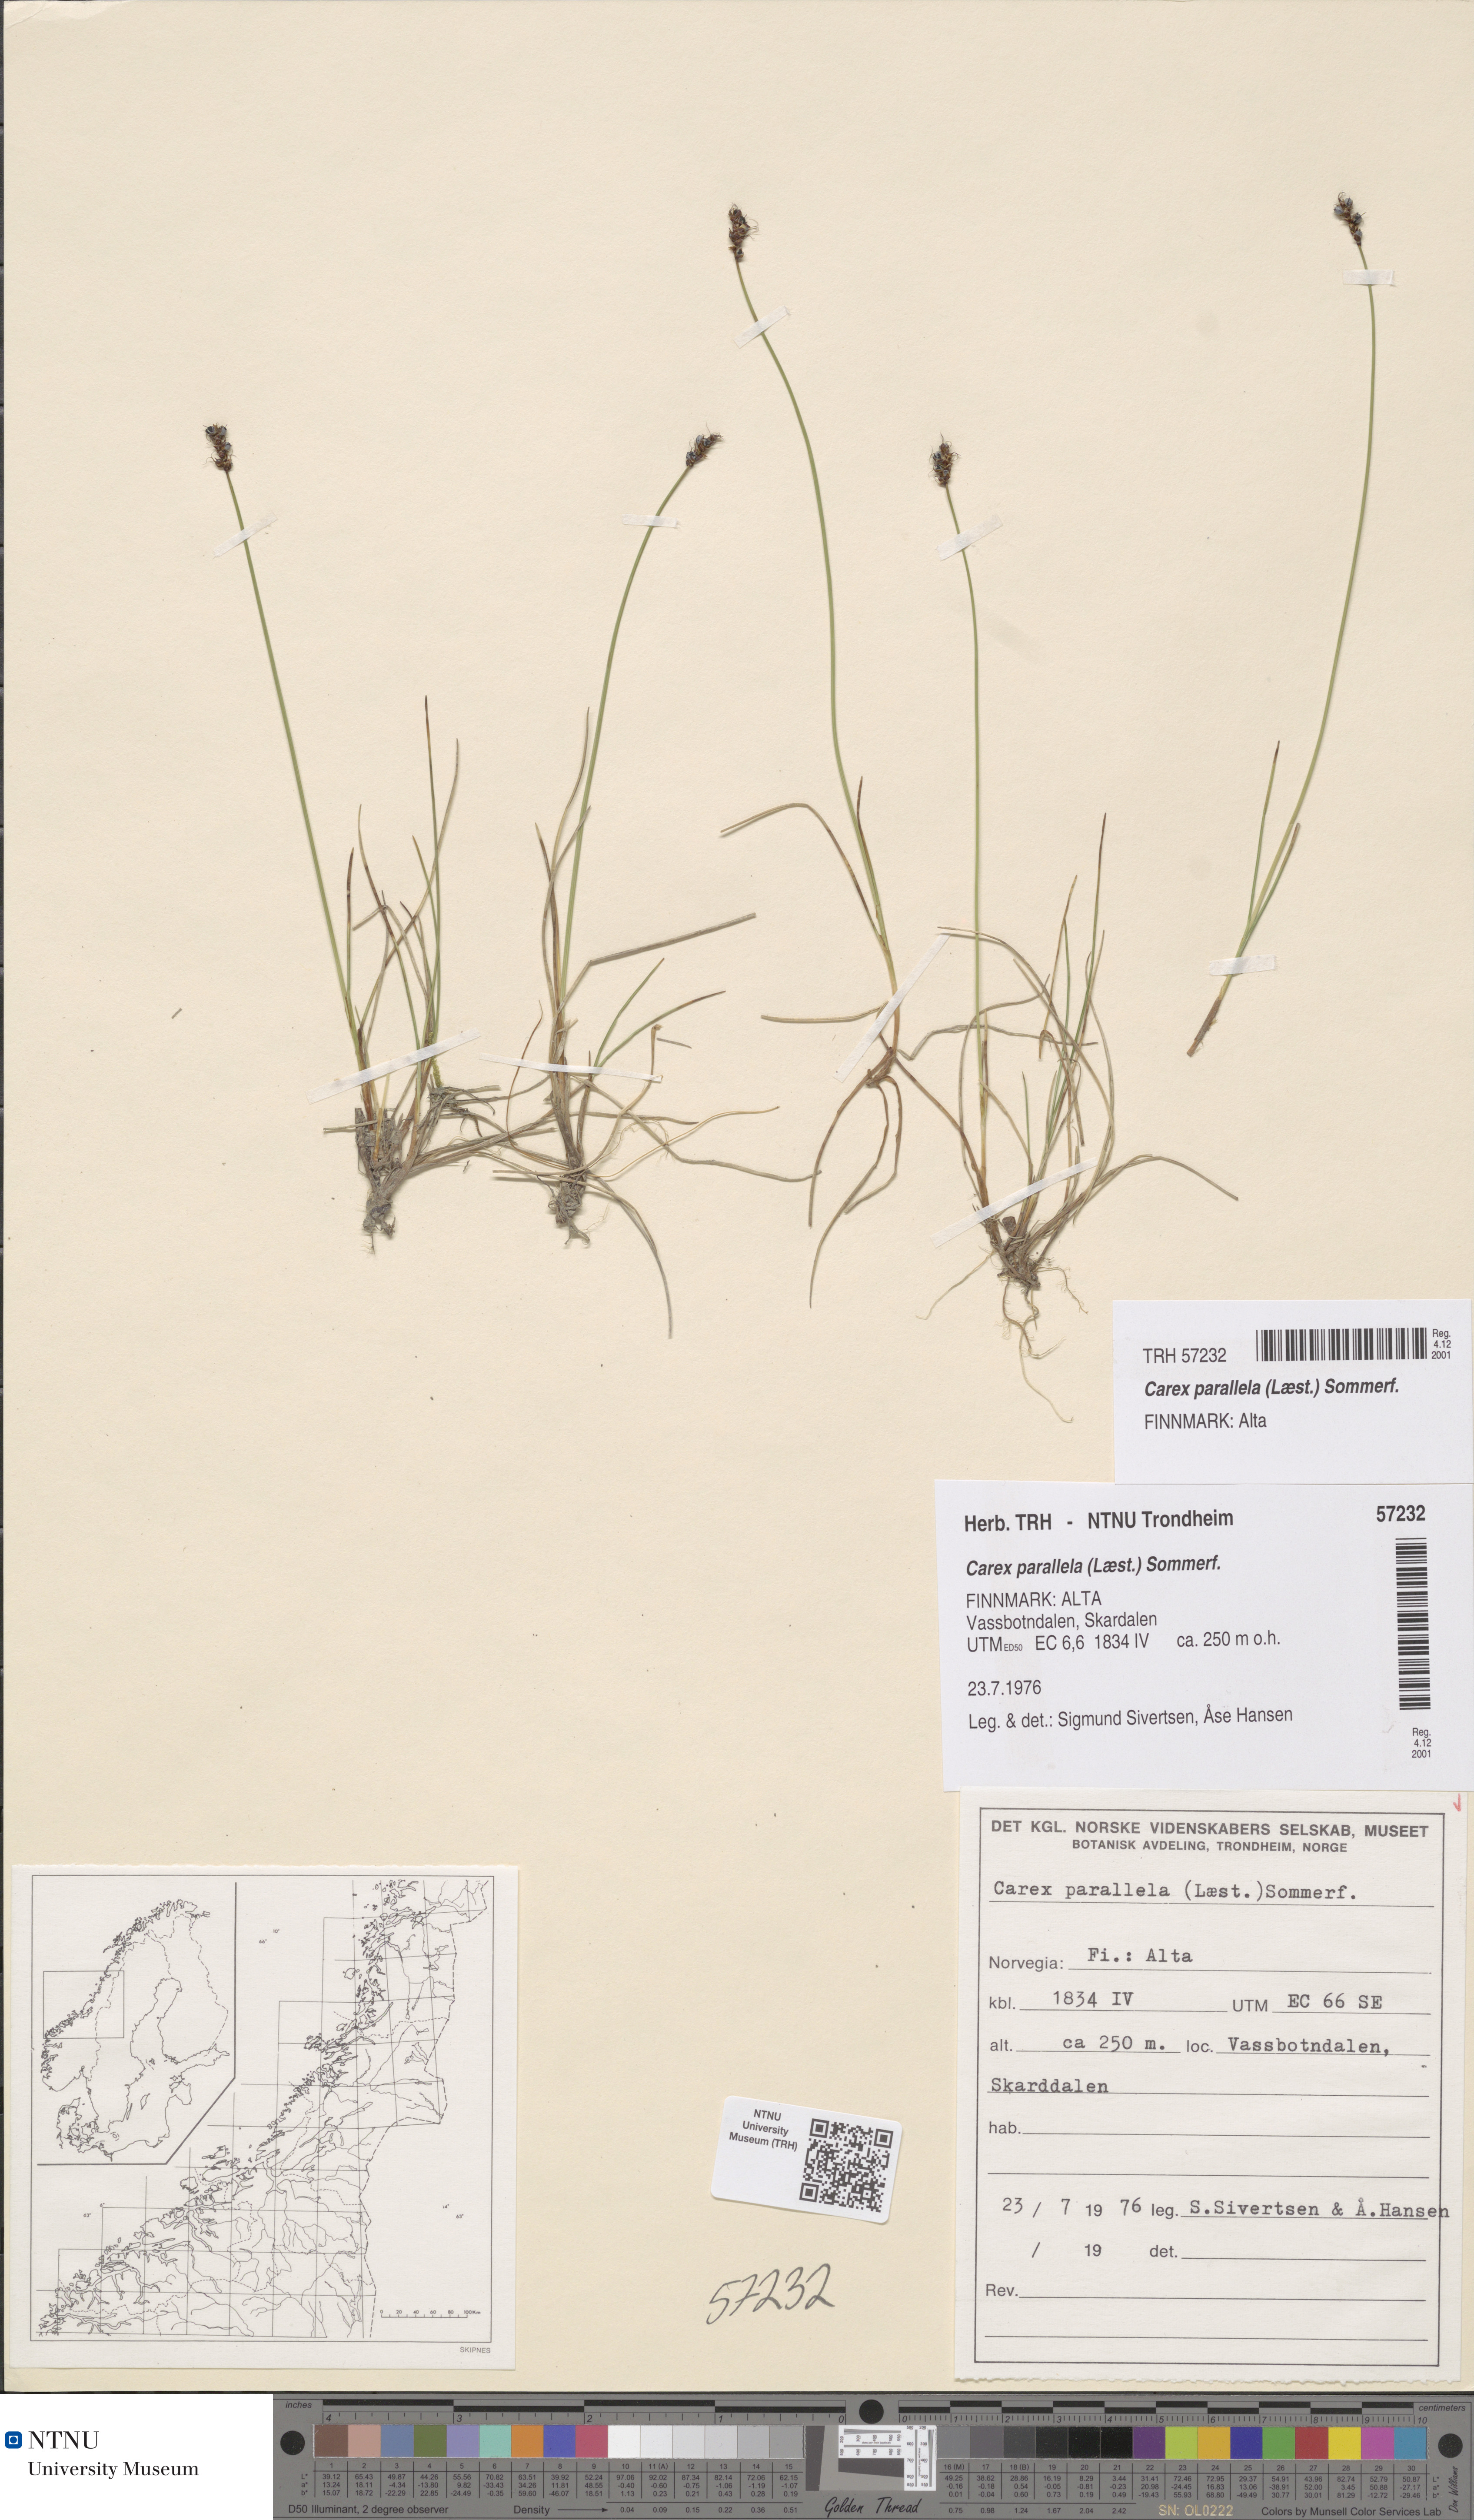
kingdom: Plantae
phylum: Tracheophyta
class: Liliopsida
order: Poales
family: Cyperaceae
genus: Carex
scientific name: Carex parallela
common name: Parallel sedge
